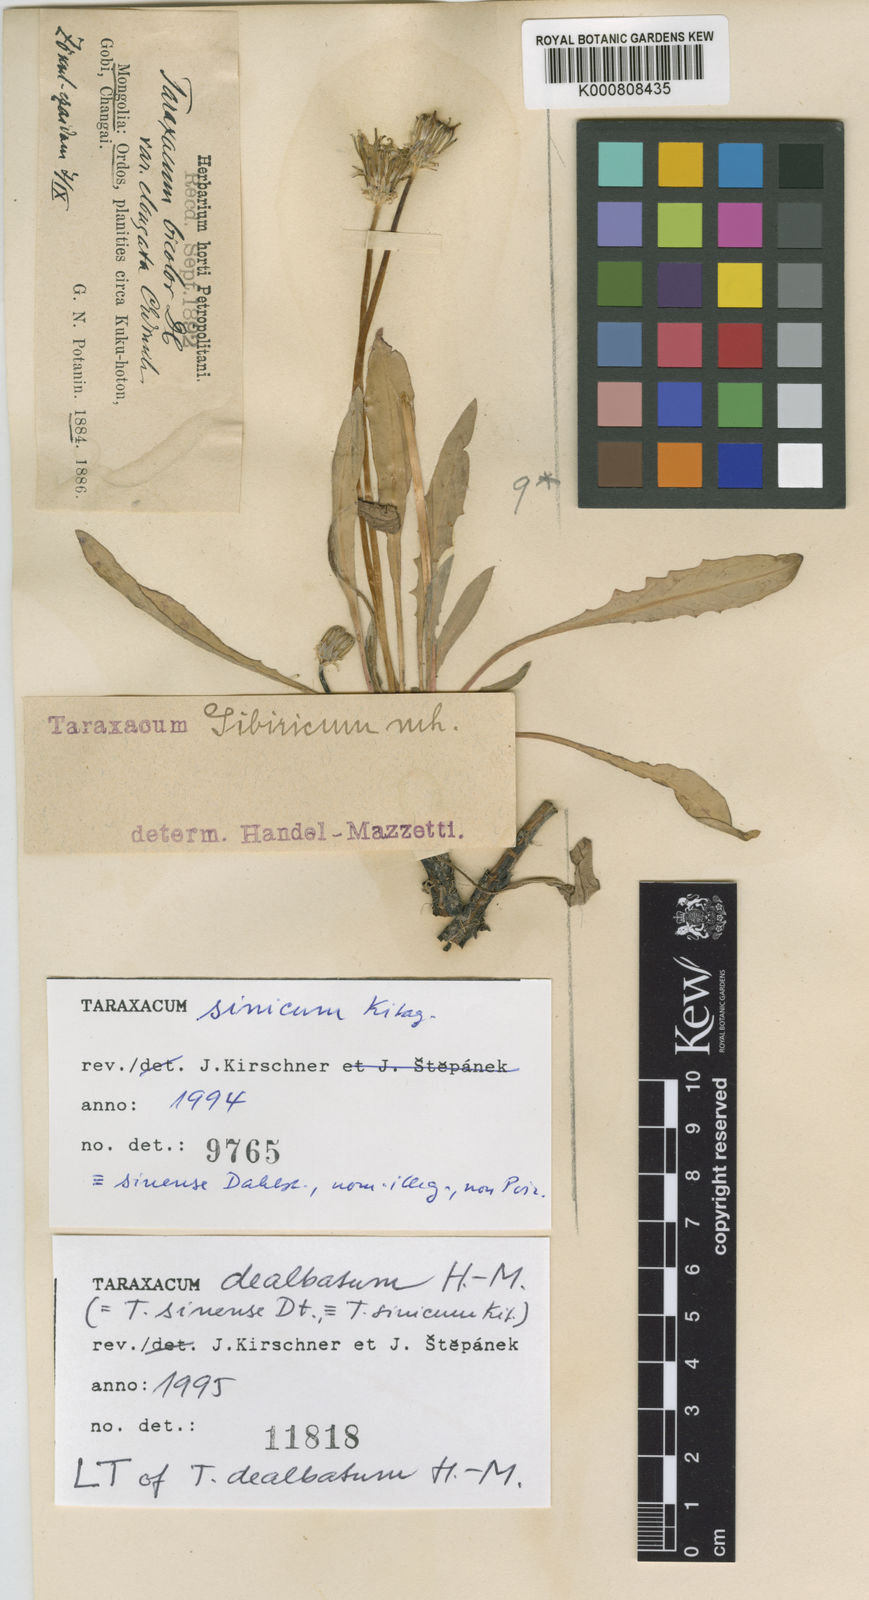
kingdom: Plantae
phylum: Tracheophyta
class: Magnoliopsida
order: Asterales
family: Asteraceae
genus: Taraxacum
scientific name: Taraxacum dealbatum
